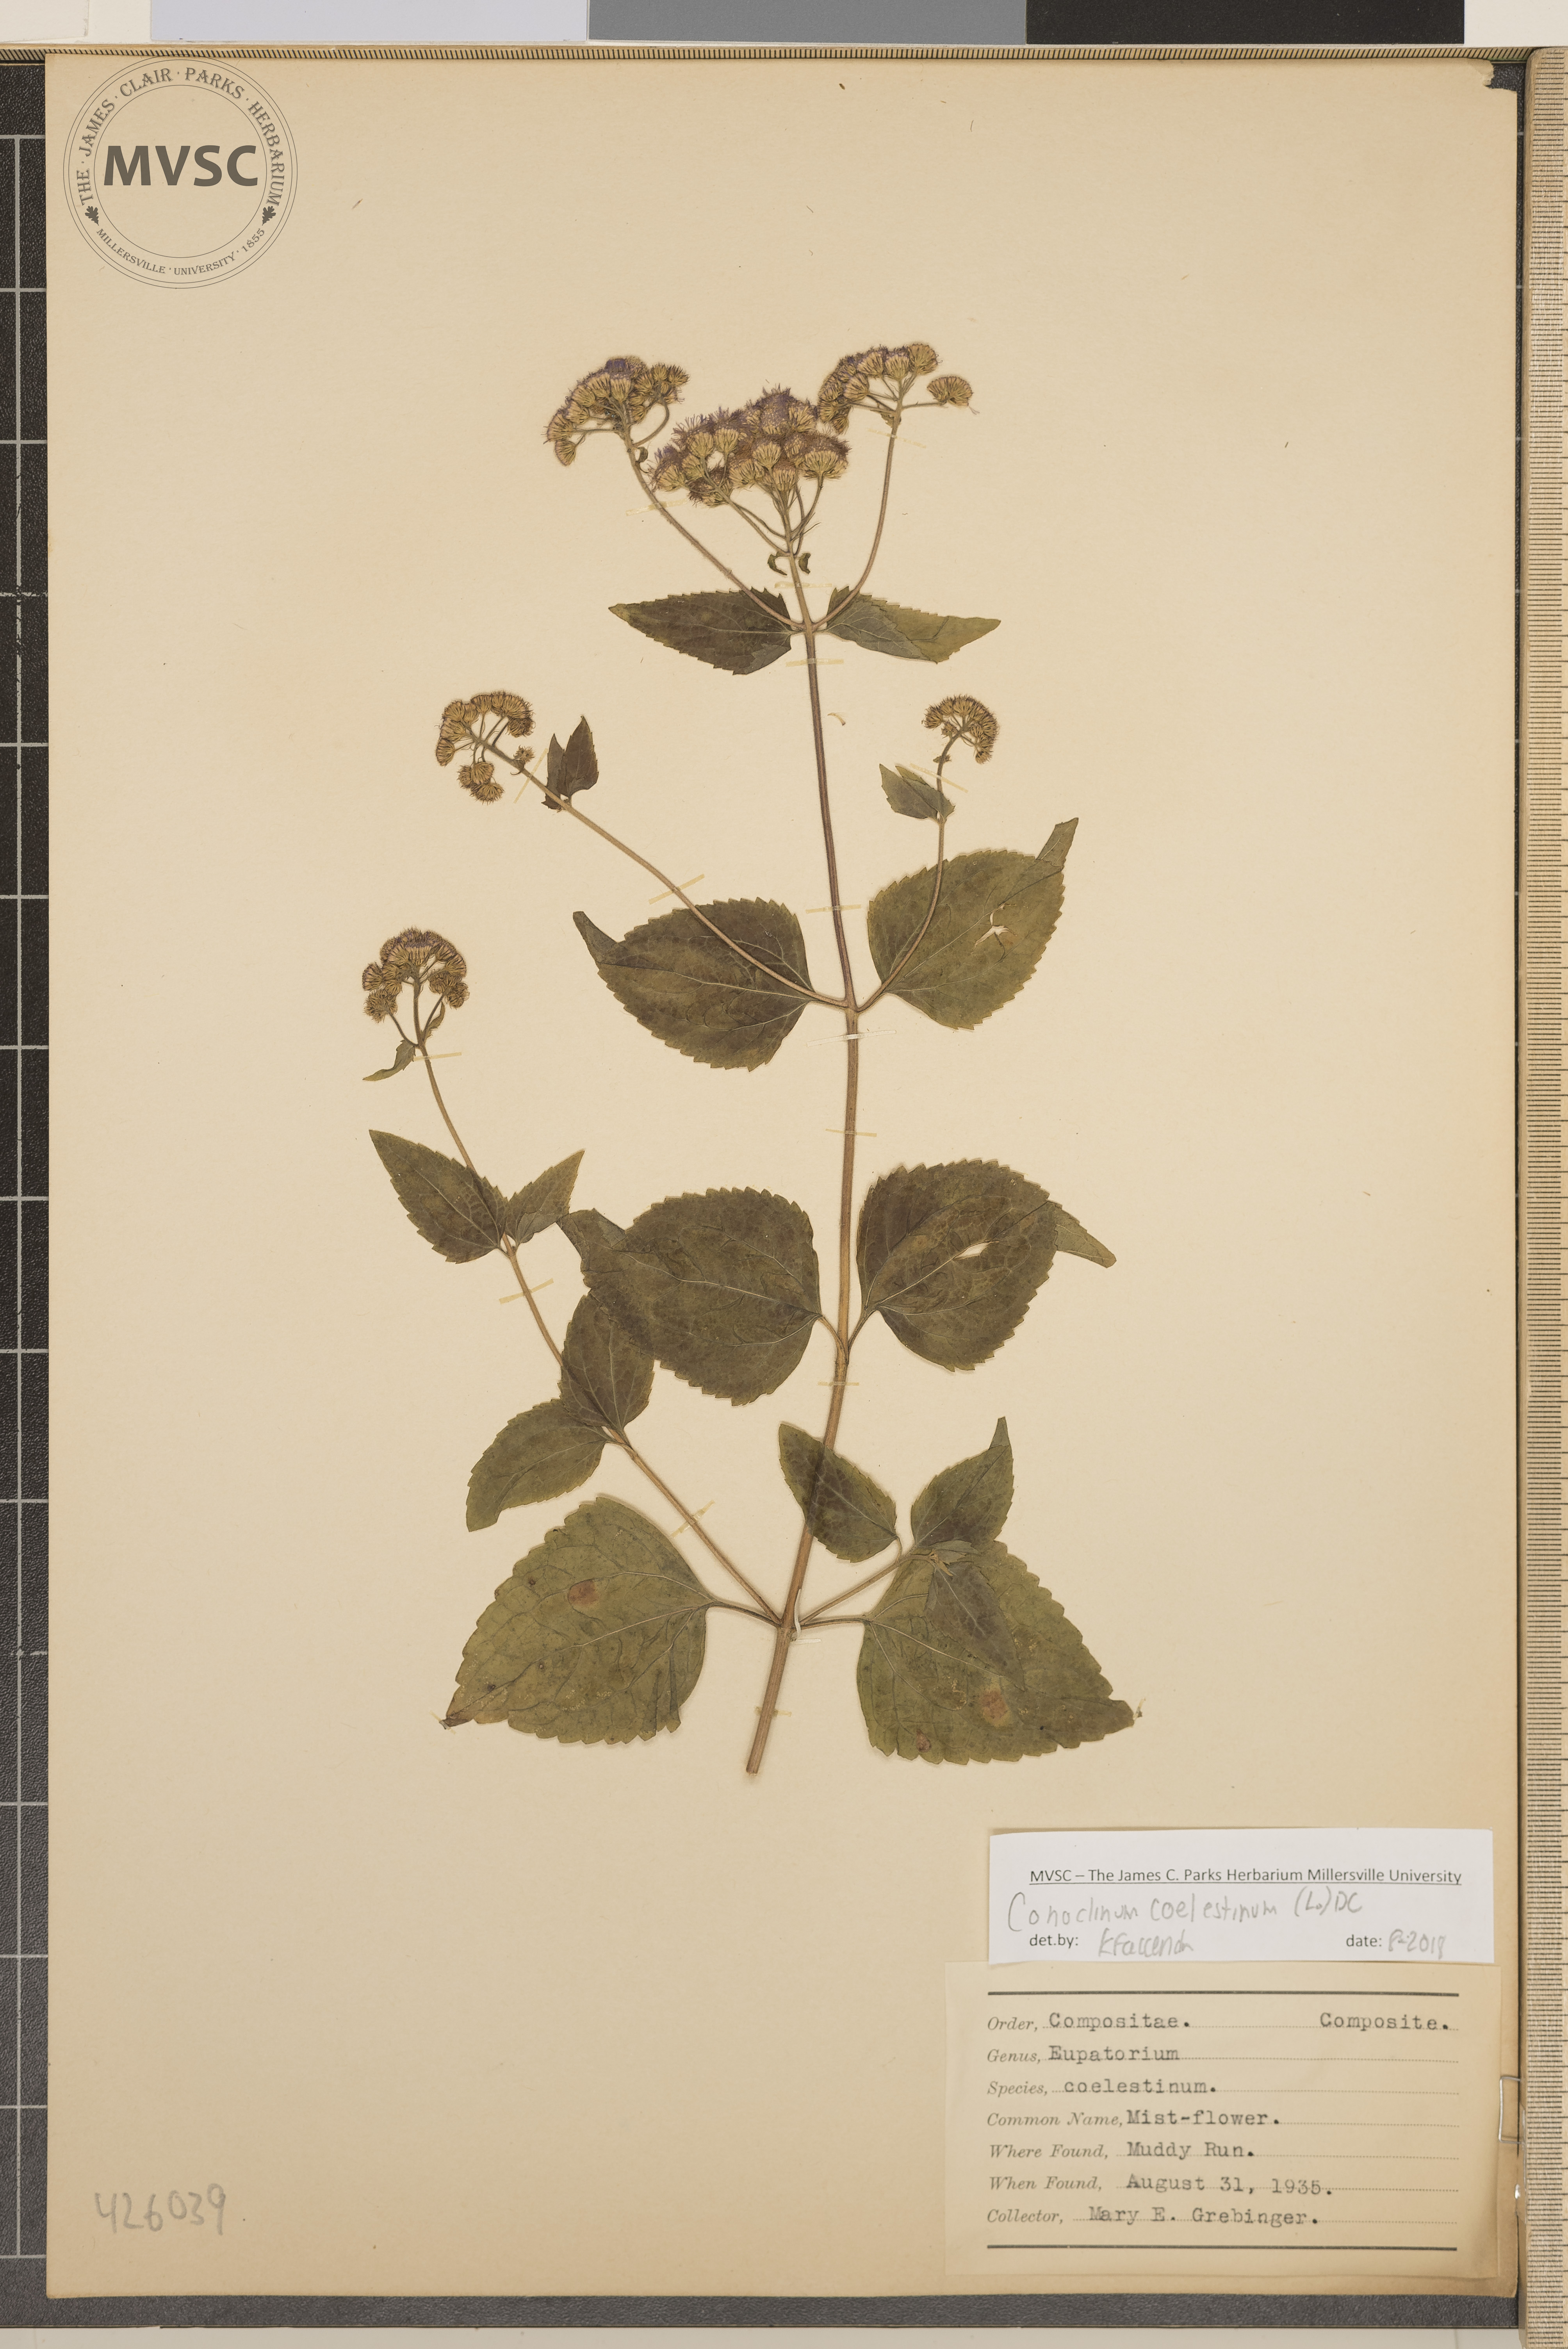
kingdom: Plantae
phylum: Tracheophyta
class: Magnoliopsida
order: Asterales
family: Asteraceae
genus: Conoclinium
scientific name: Conoclinium coelestinum
